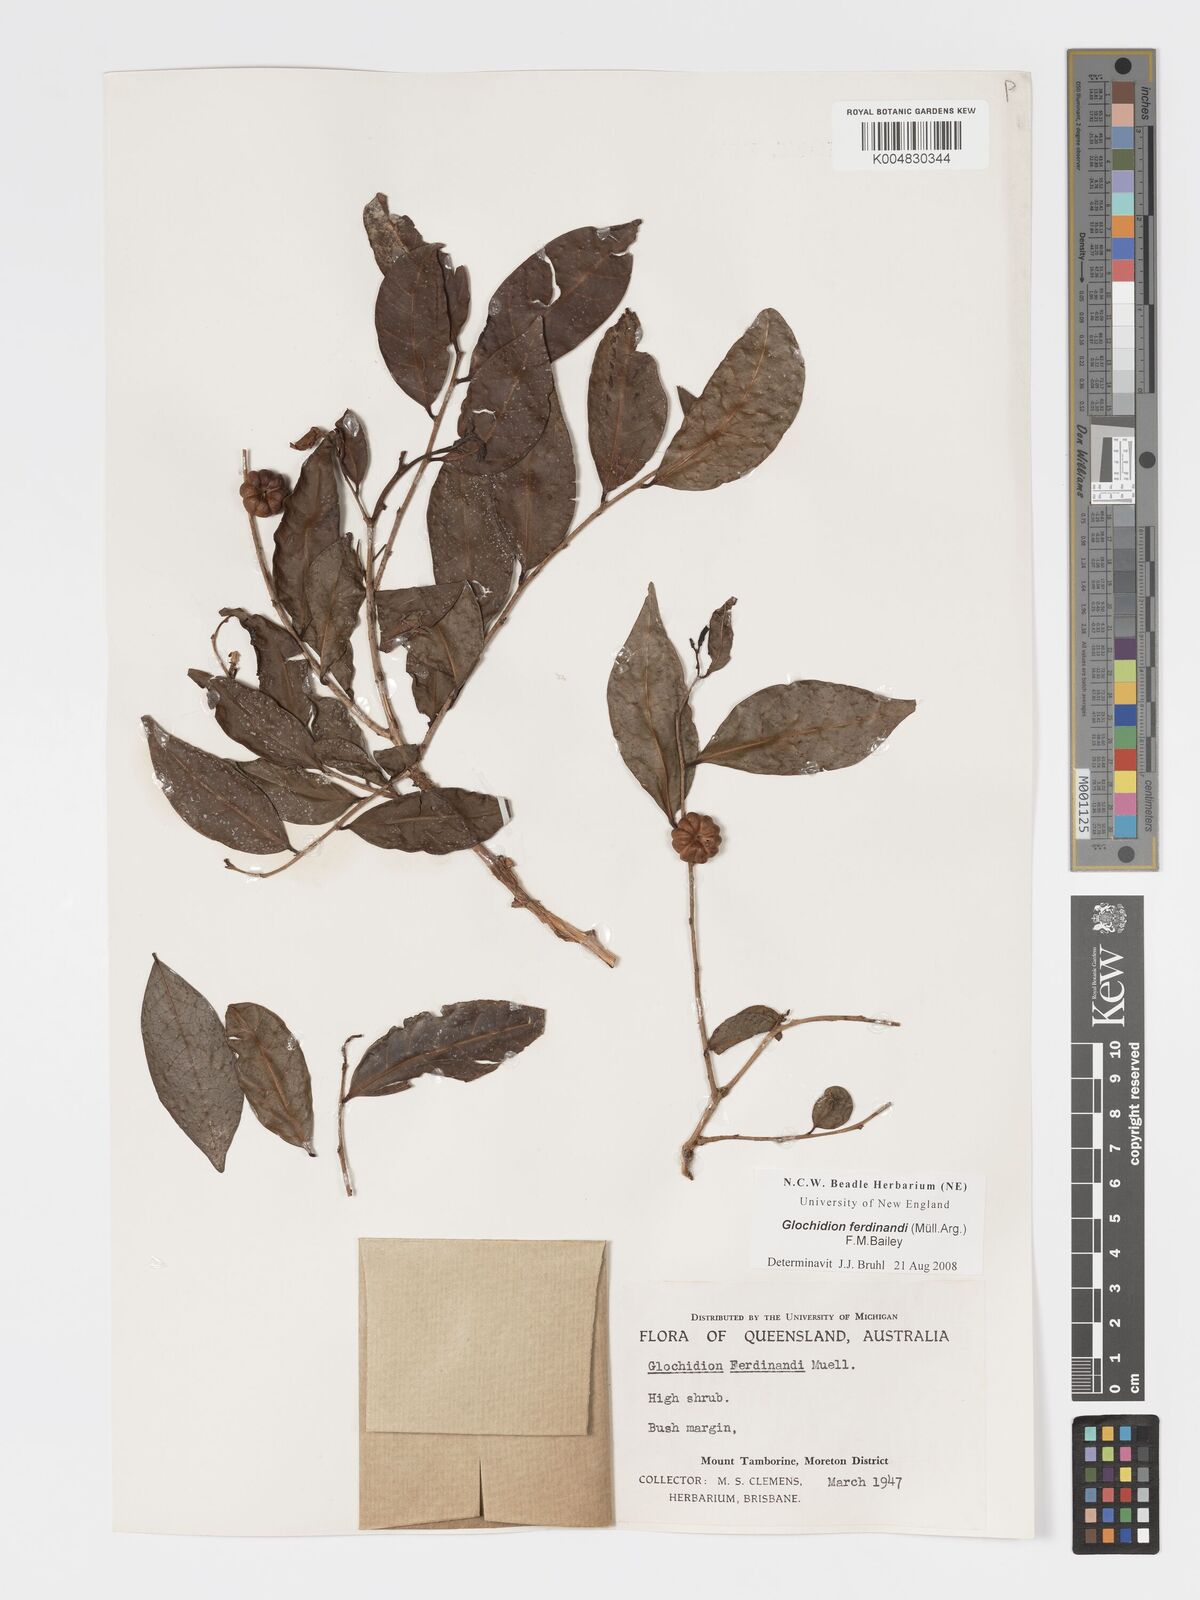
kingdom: Plantae
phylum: Tracheophyta
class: Magnoliopsida
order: Malpighiales
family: Phyllanthaceae
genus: Glochidion
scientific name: Glochidion ferdinandi
